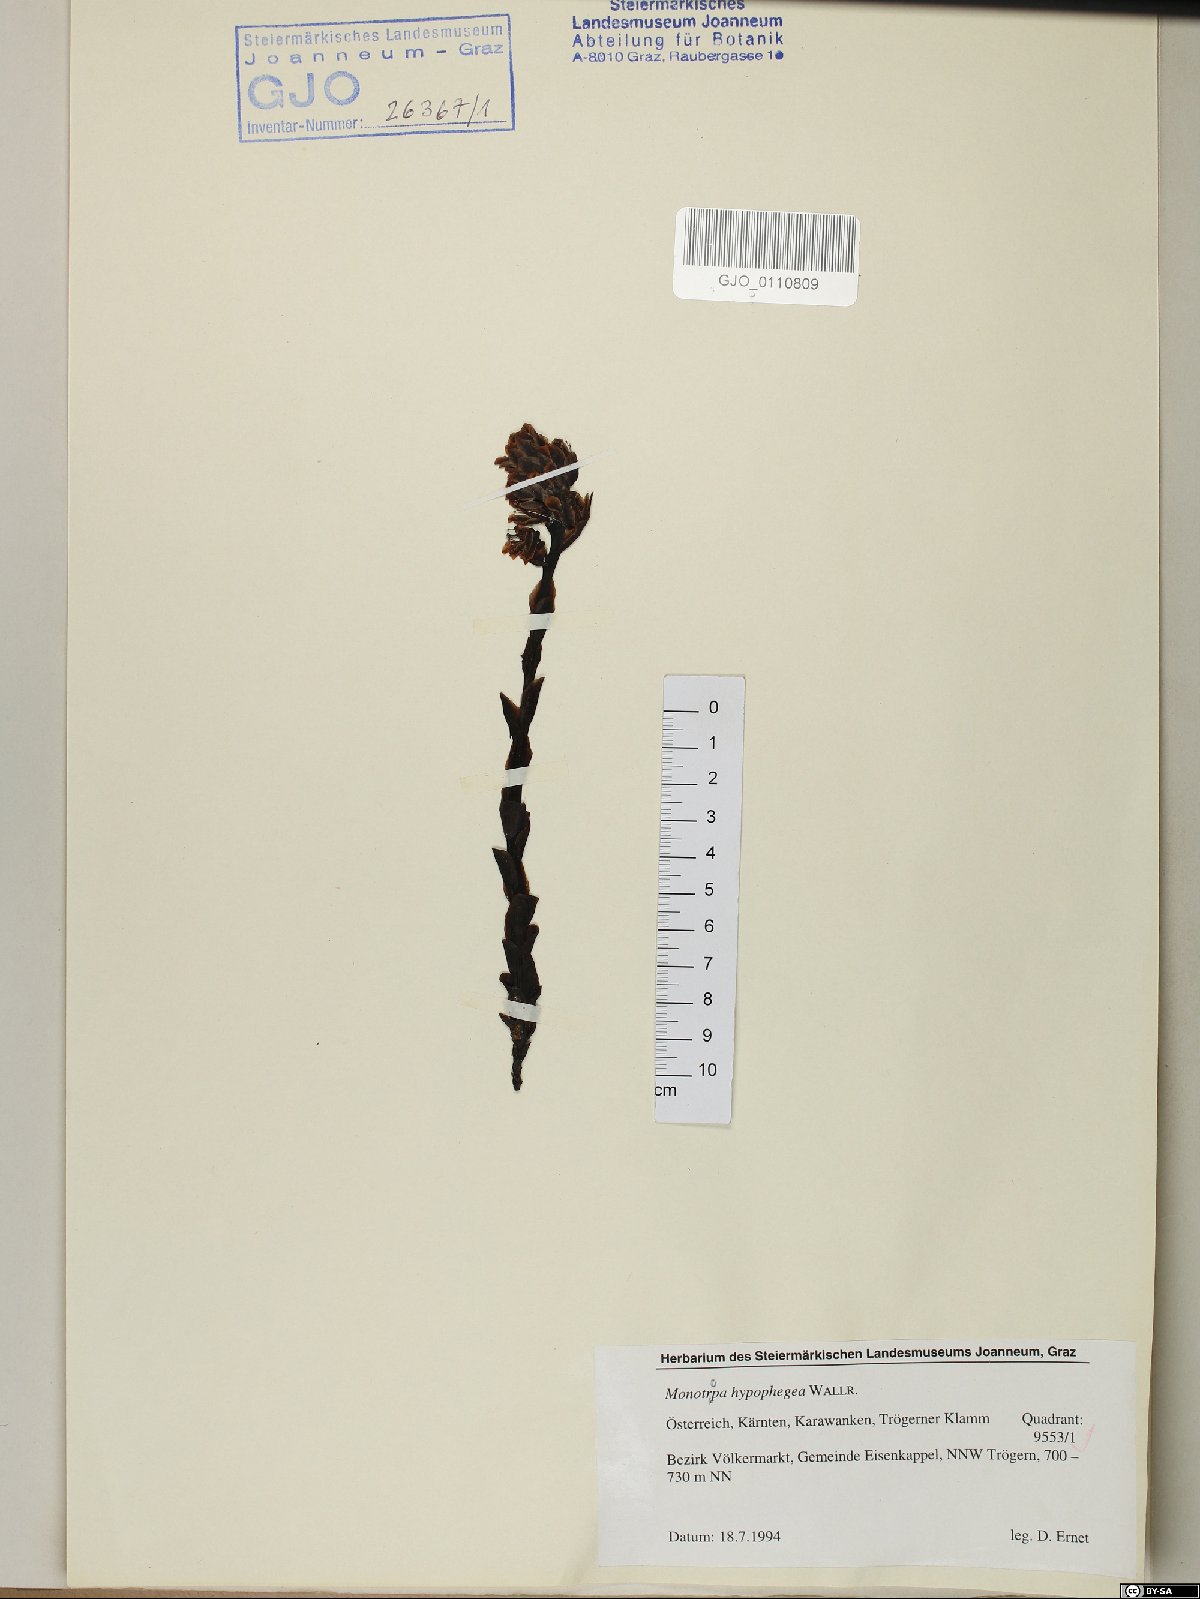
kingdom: Plantae
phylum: Tracheophyta
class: Magnoliopsida
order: Ericales
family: Ericaceae
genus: Hypopitys
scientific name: Hypopitys hypophegea
